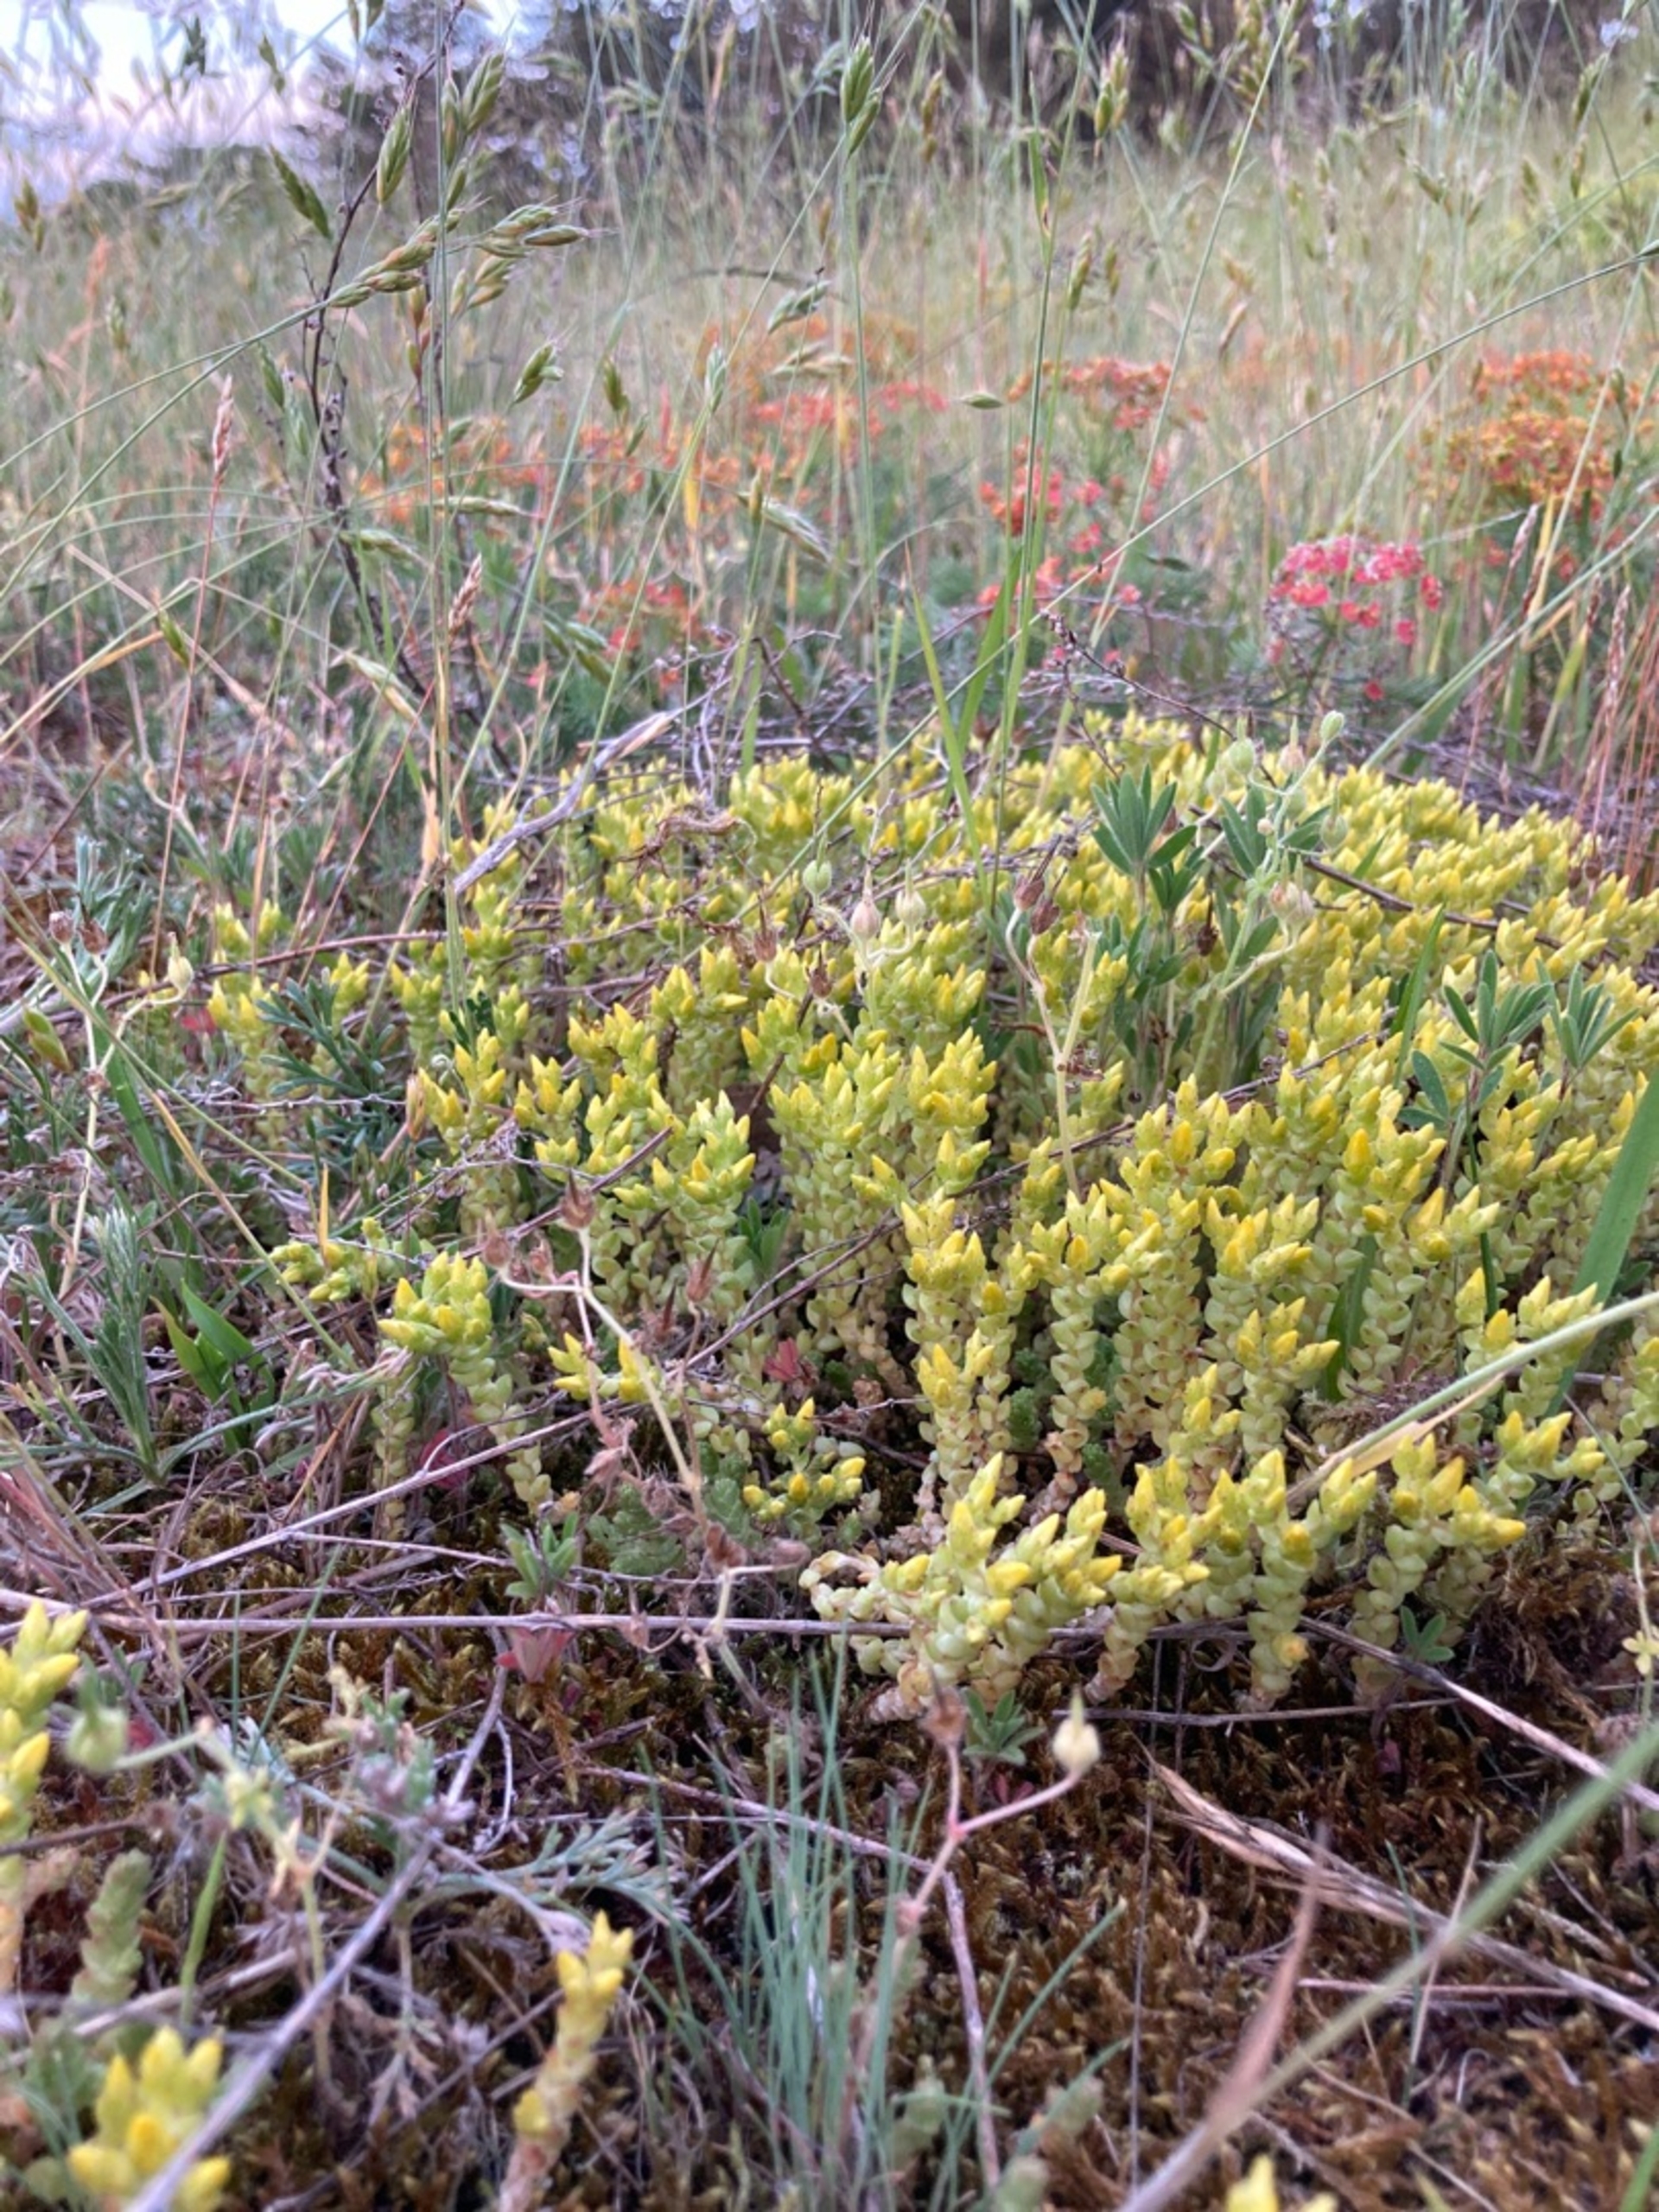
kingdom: Plantae
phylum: Tracheophyta
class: Magnoliopsida
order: Saxifragales
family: Crassulaceae
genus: Sedum
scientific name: Sedum acre
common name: Bidende stenurt
